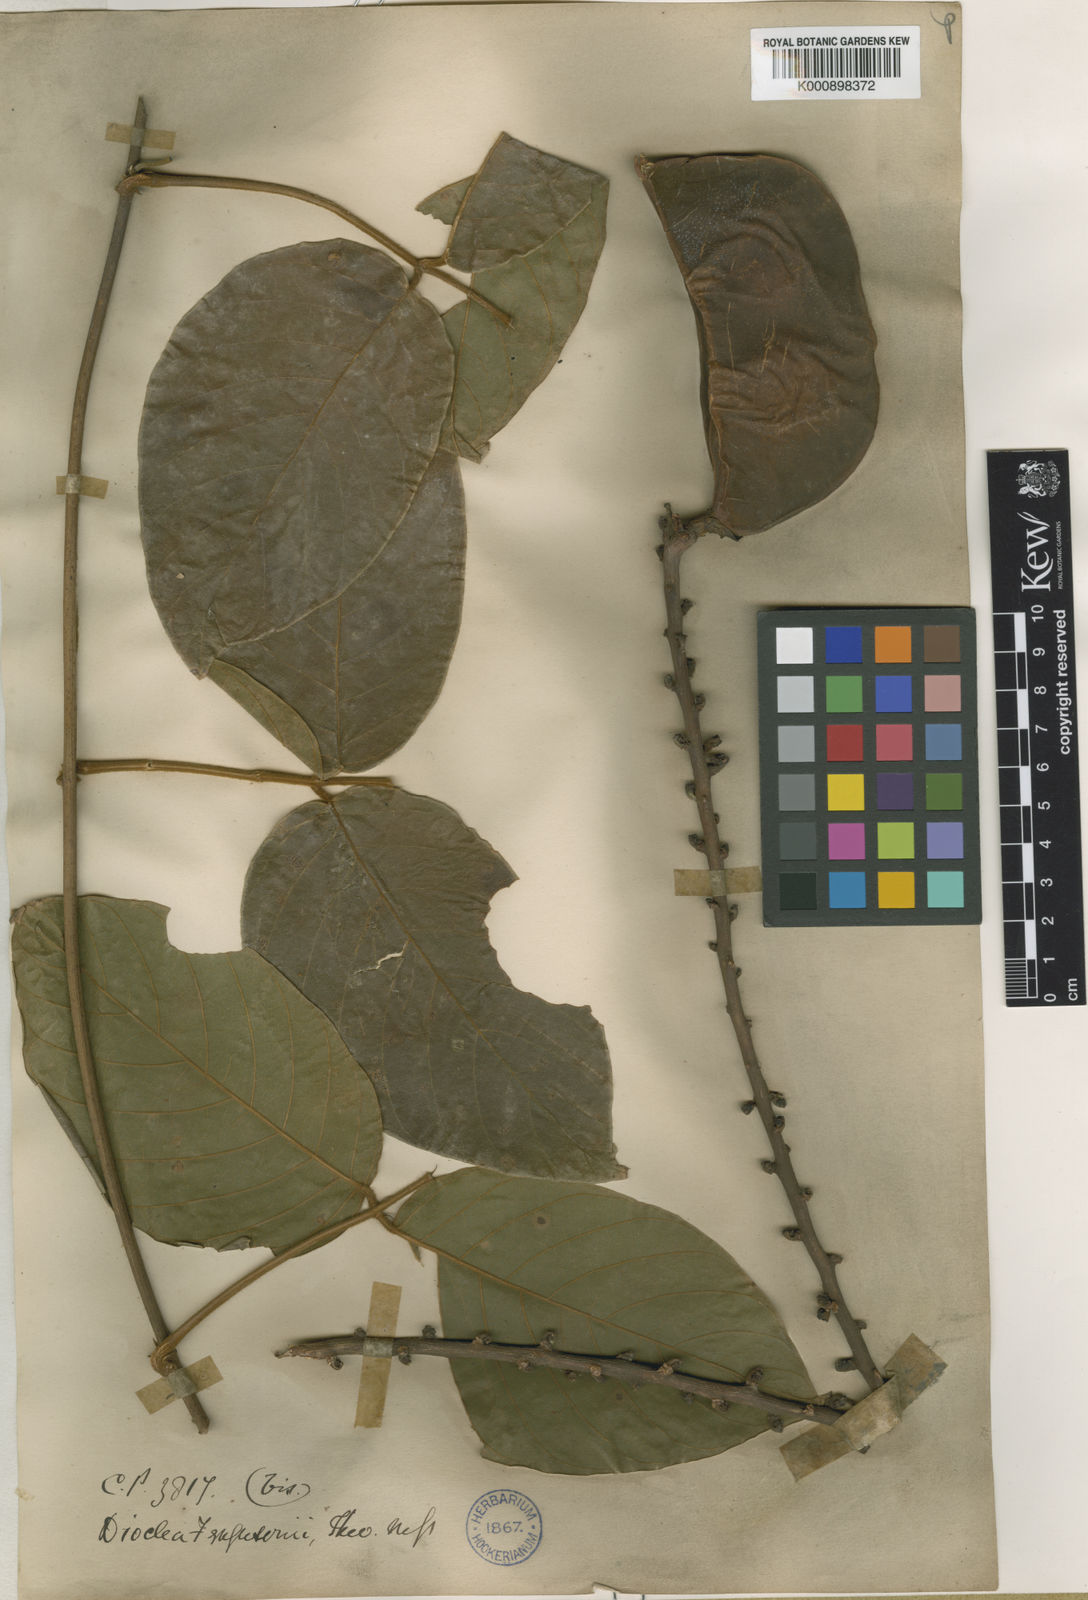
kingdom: Plantae
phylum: Tracheophyta
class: Magnoliopsida
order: Fabales
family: Fabaceae
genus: Macropsychanthus
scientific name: Macropsychanthus javanicus
